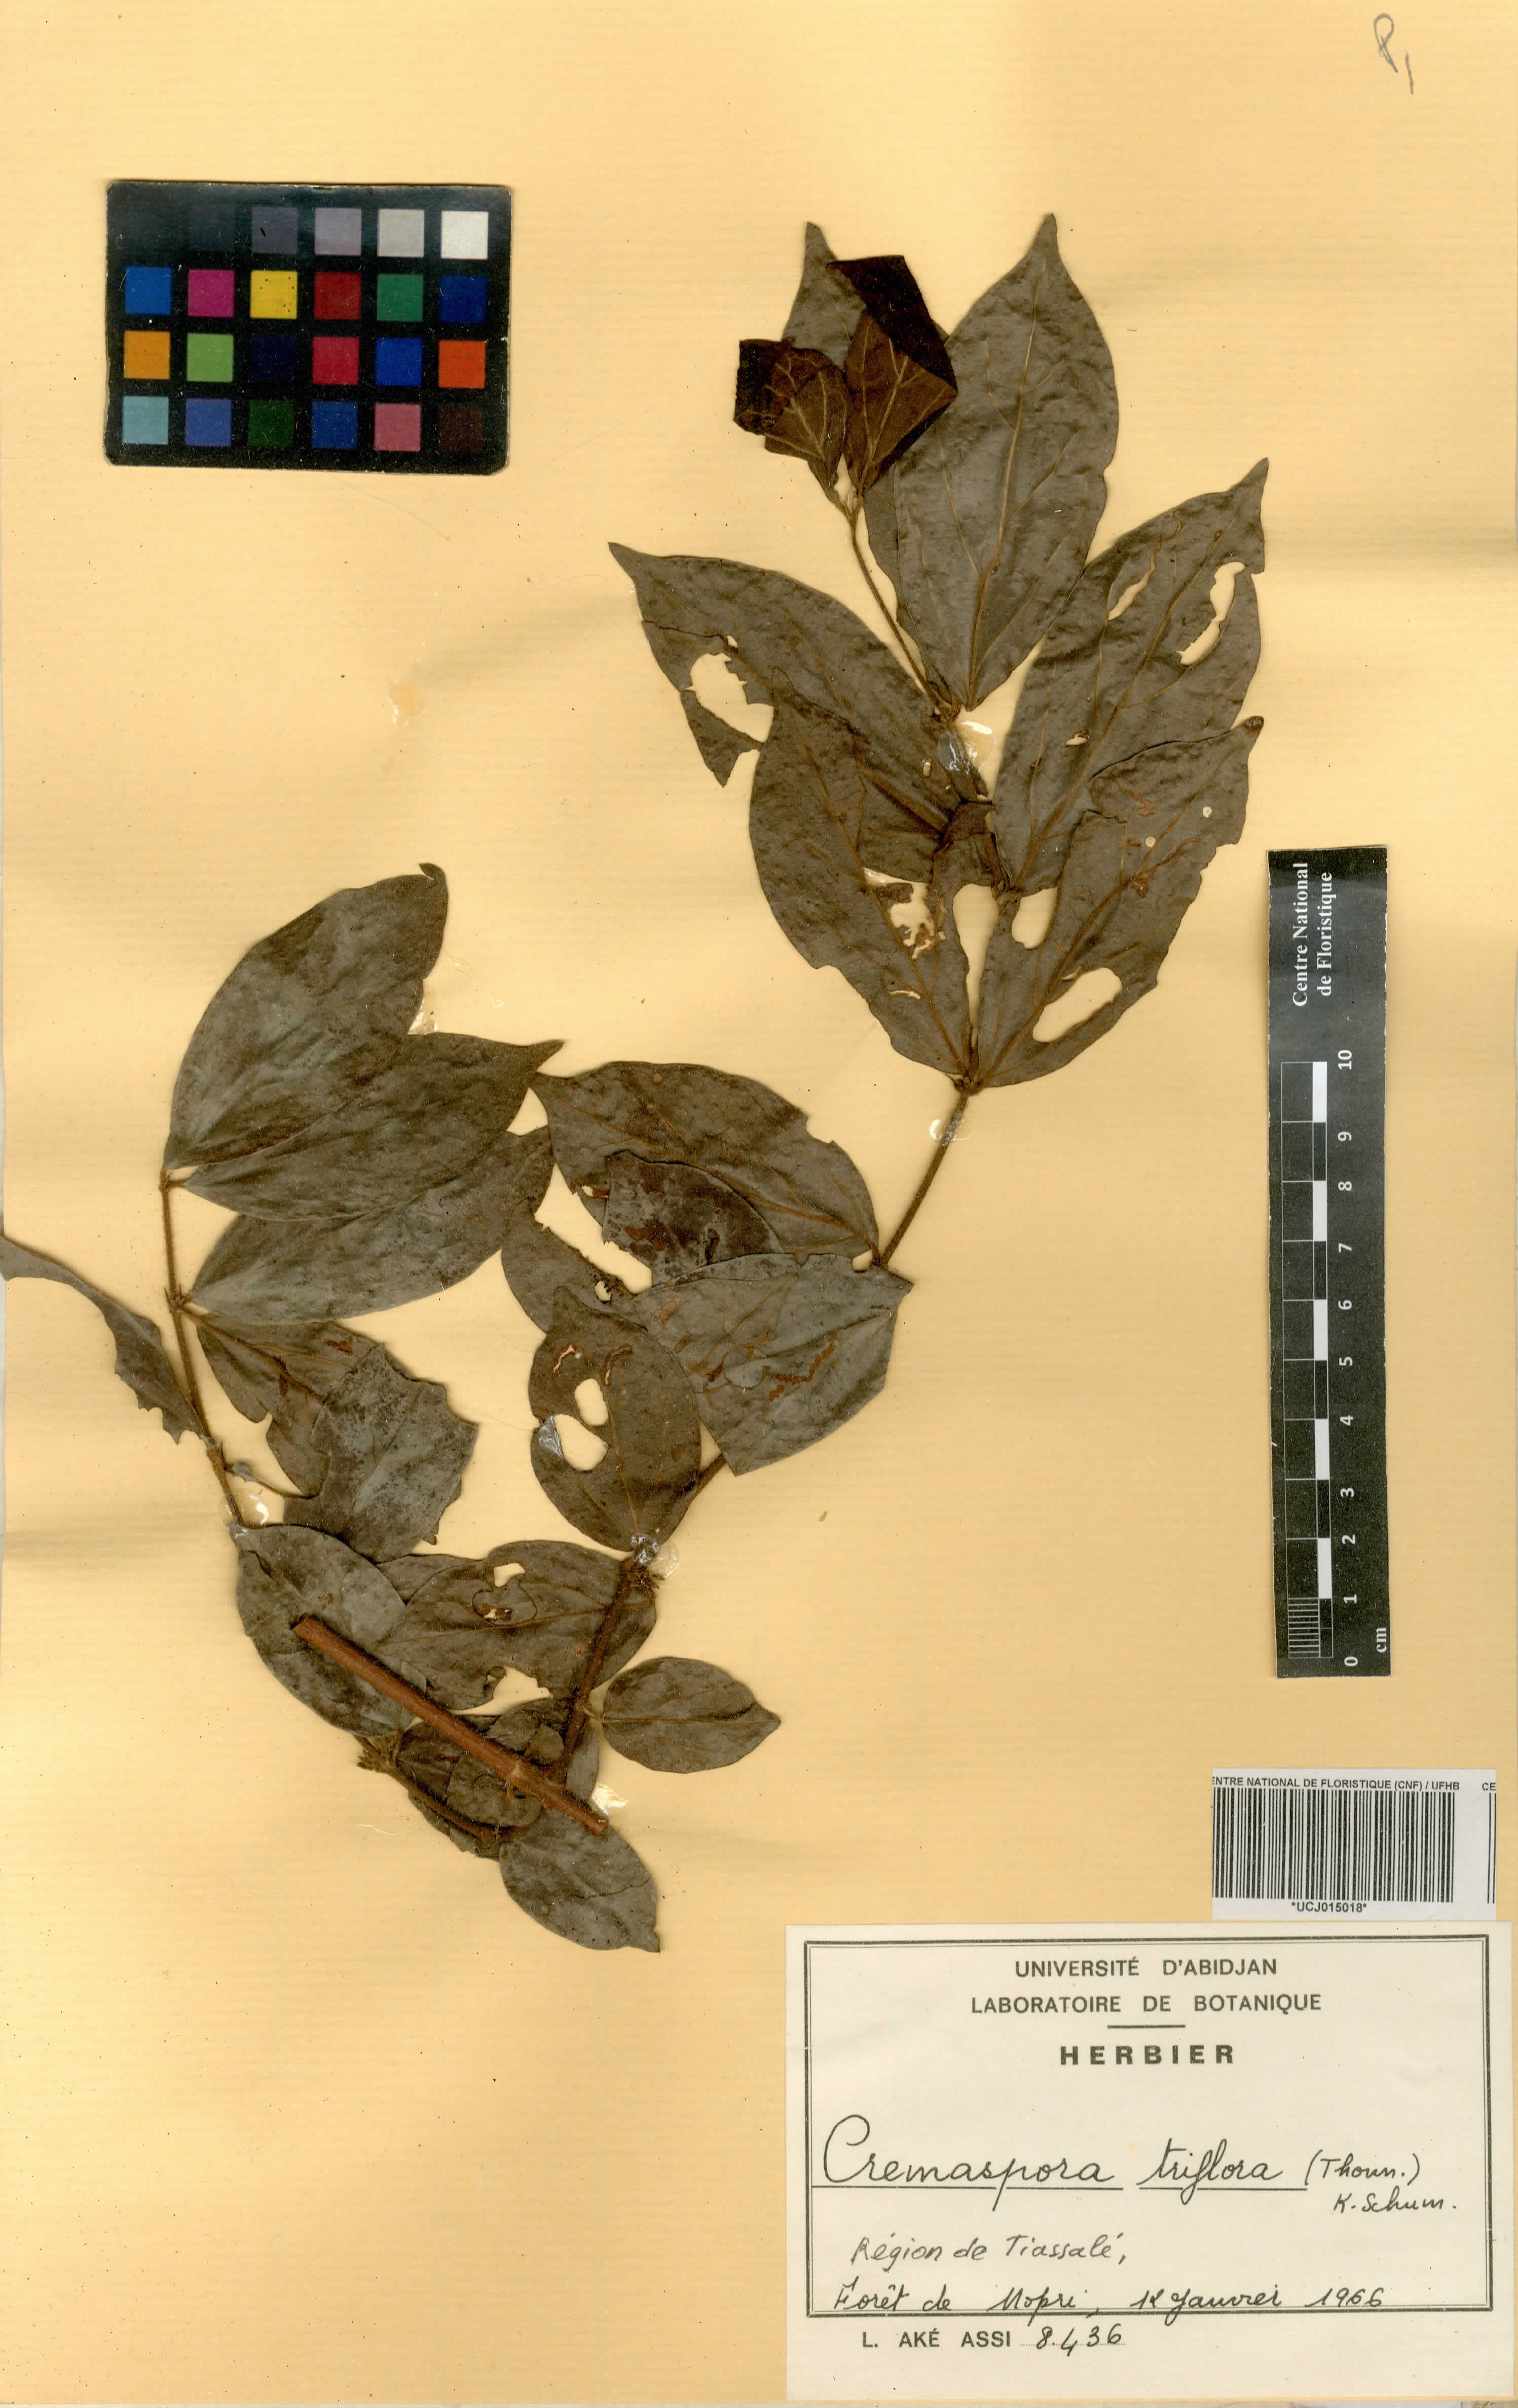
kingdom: Plantae
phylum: Tracheophyta
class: Magnoliopsida
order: Gentianales
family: Rubiaceae
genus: Cremaspora
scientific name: Cremaspora triflora
